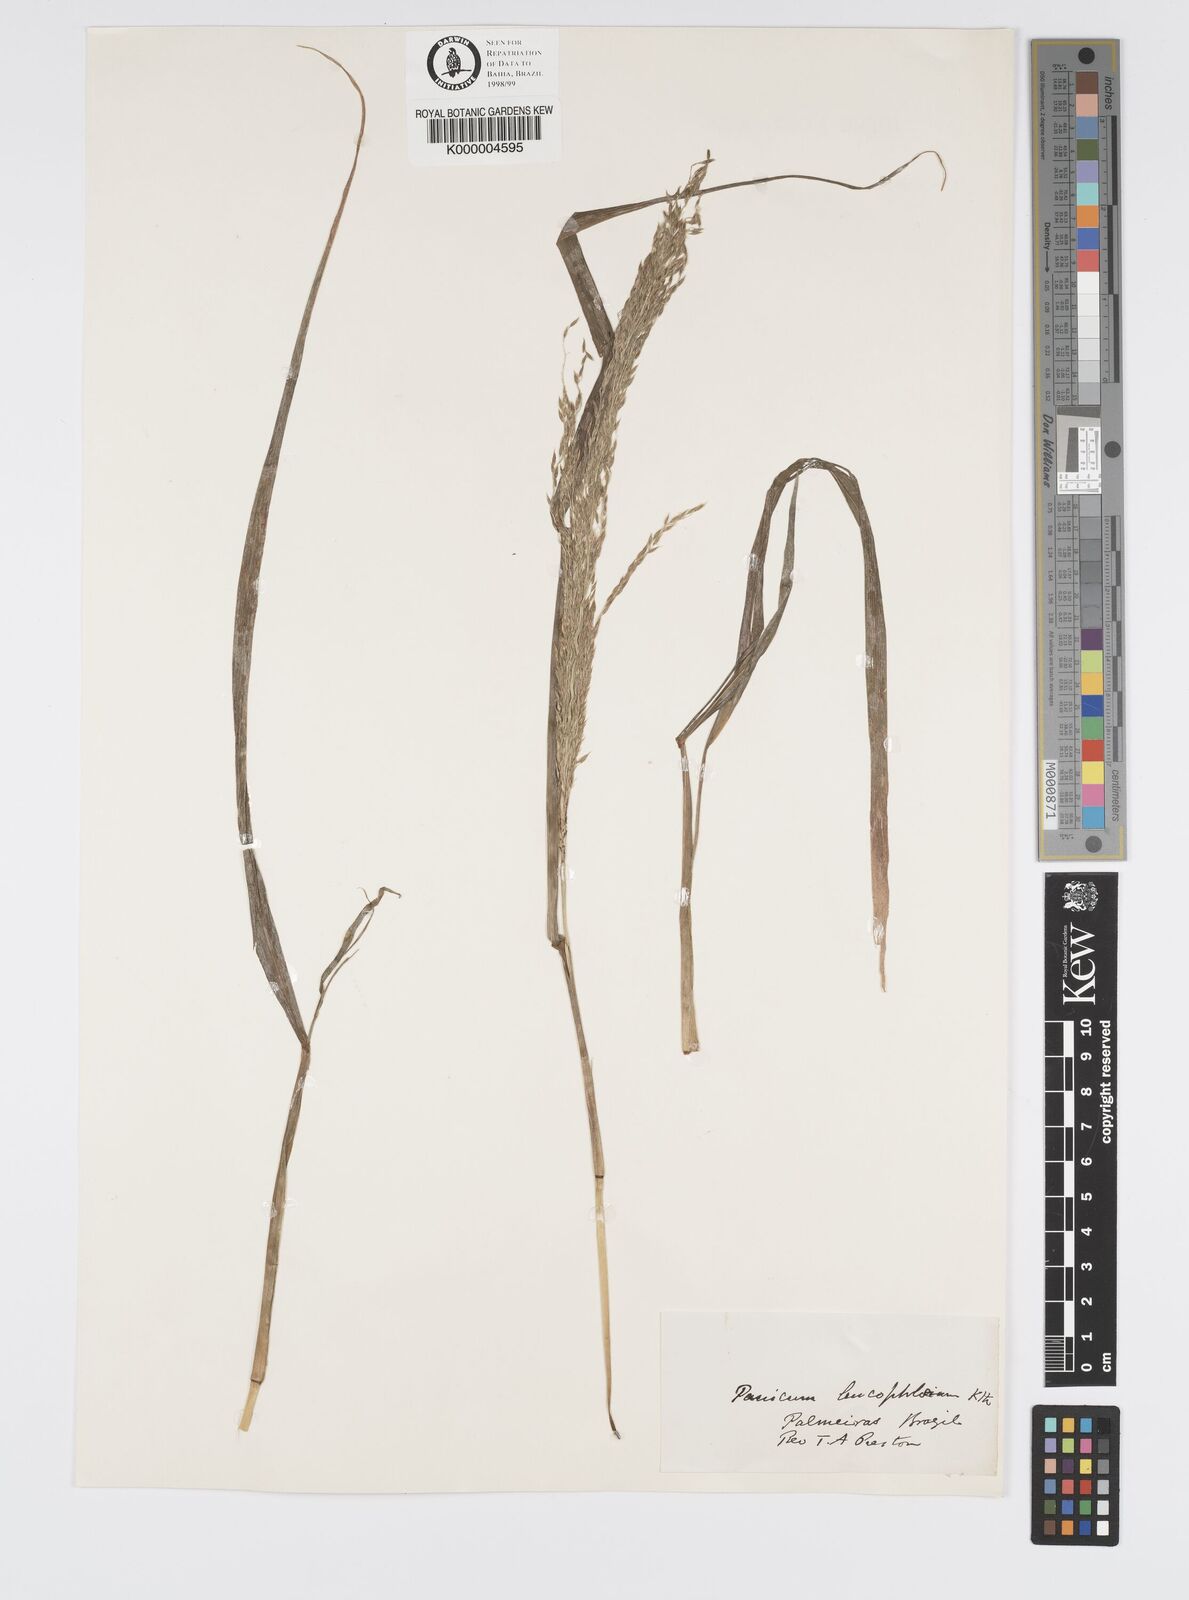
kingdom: Plantae
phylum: Tracheophyta
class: Liliopsida
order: Poales
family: Poaceae
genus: Digitaria
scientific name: Digitaria
